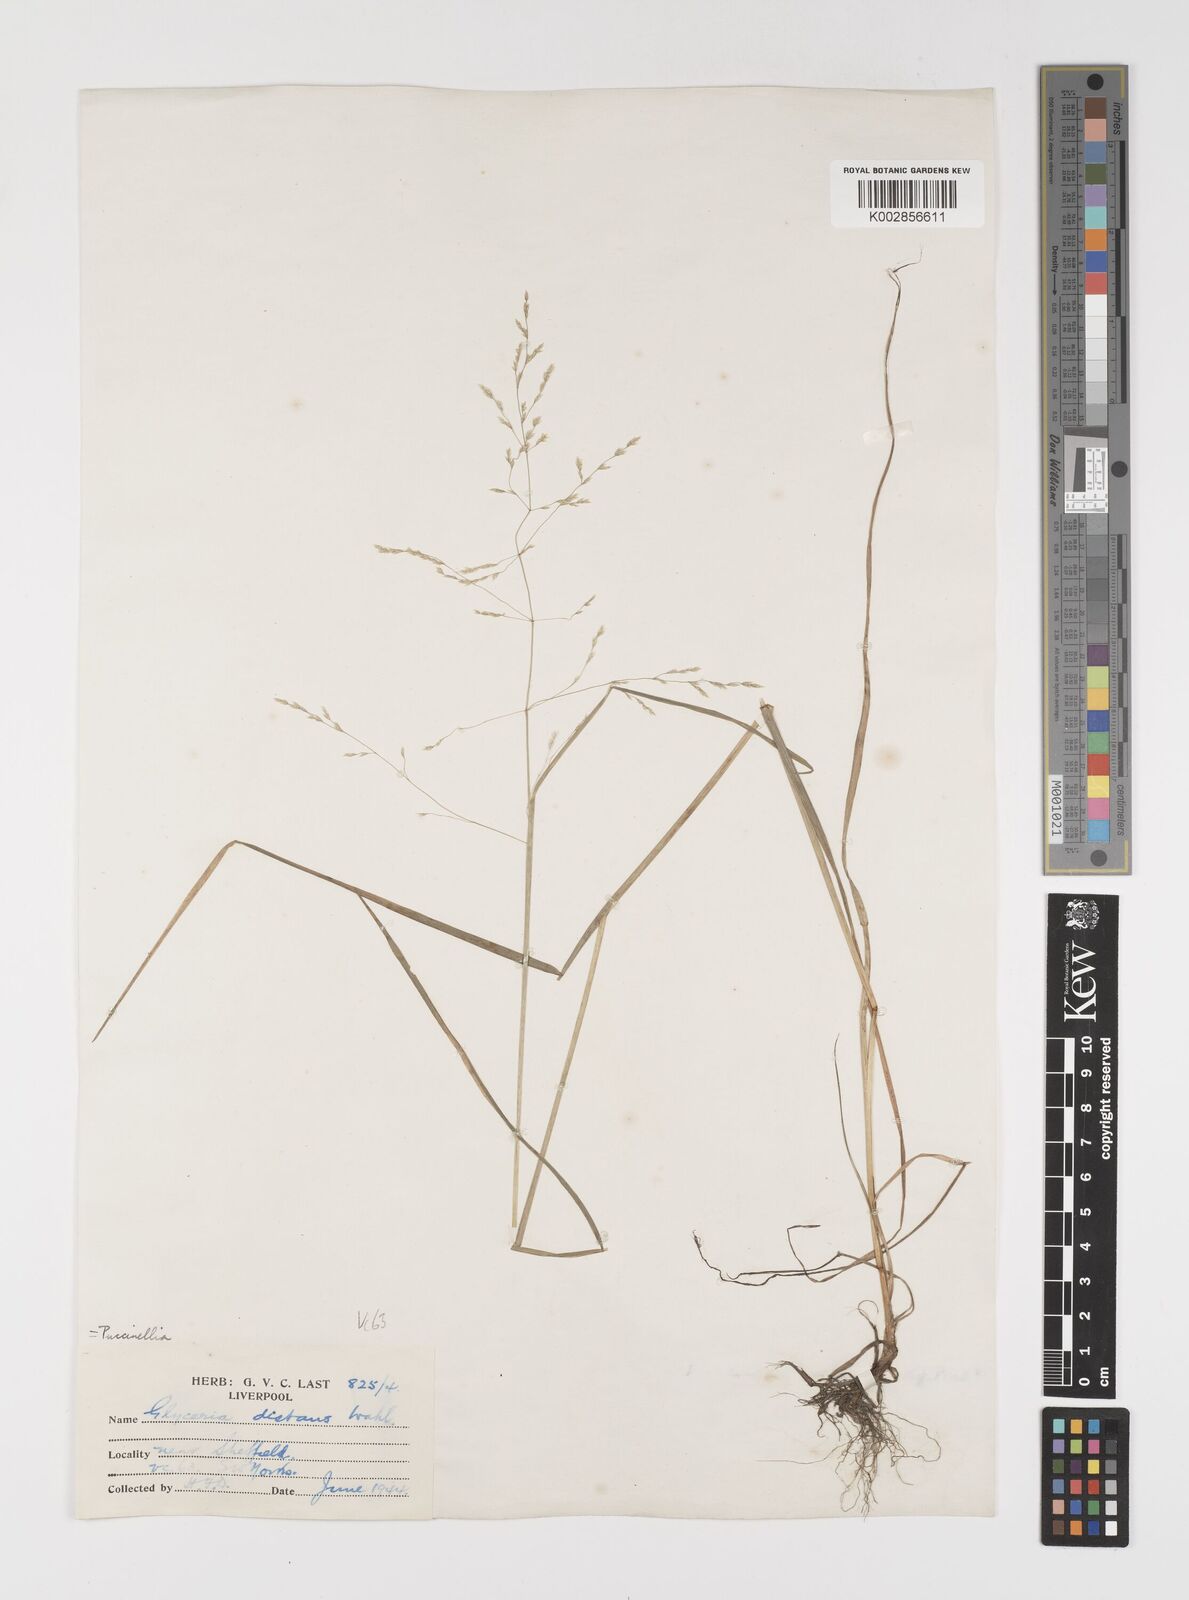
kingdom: Plantae
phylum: Tracheophyta
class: Liliopsida
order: Poales
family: Poaceae
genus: Puccinellia
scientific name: Puccinellia distans
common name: Weeping alkaligrass
